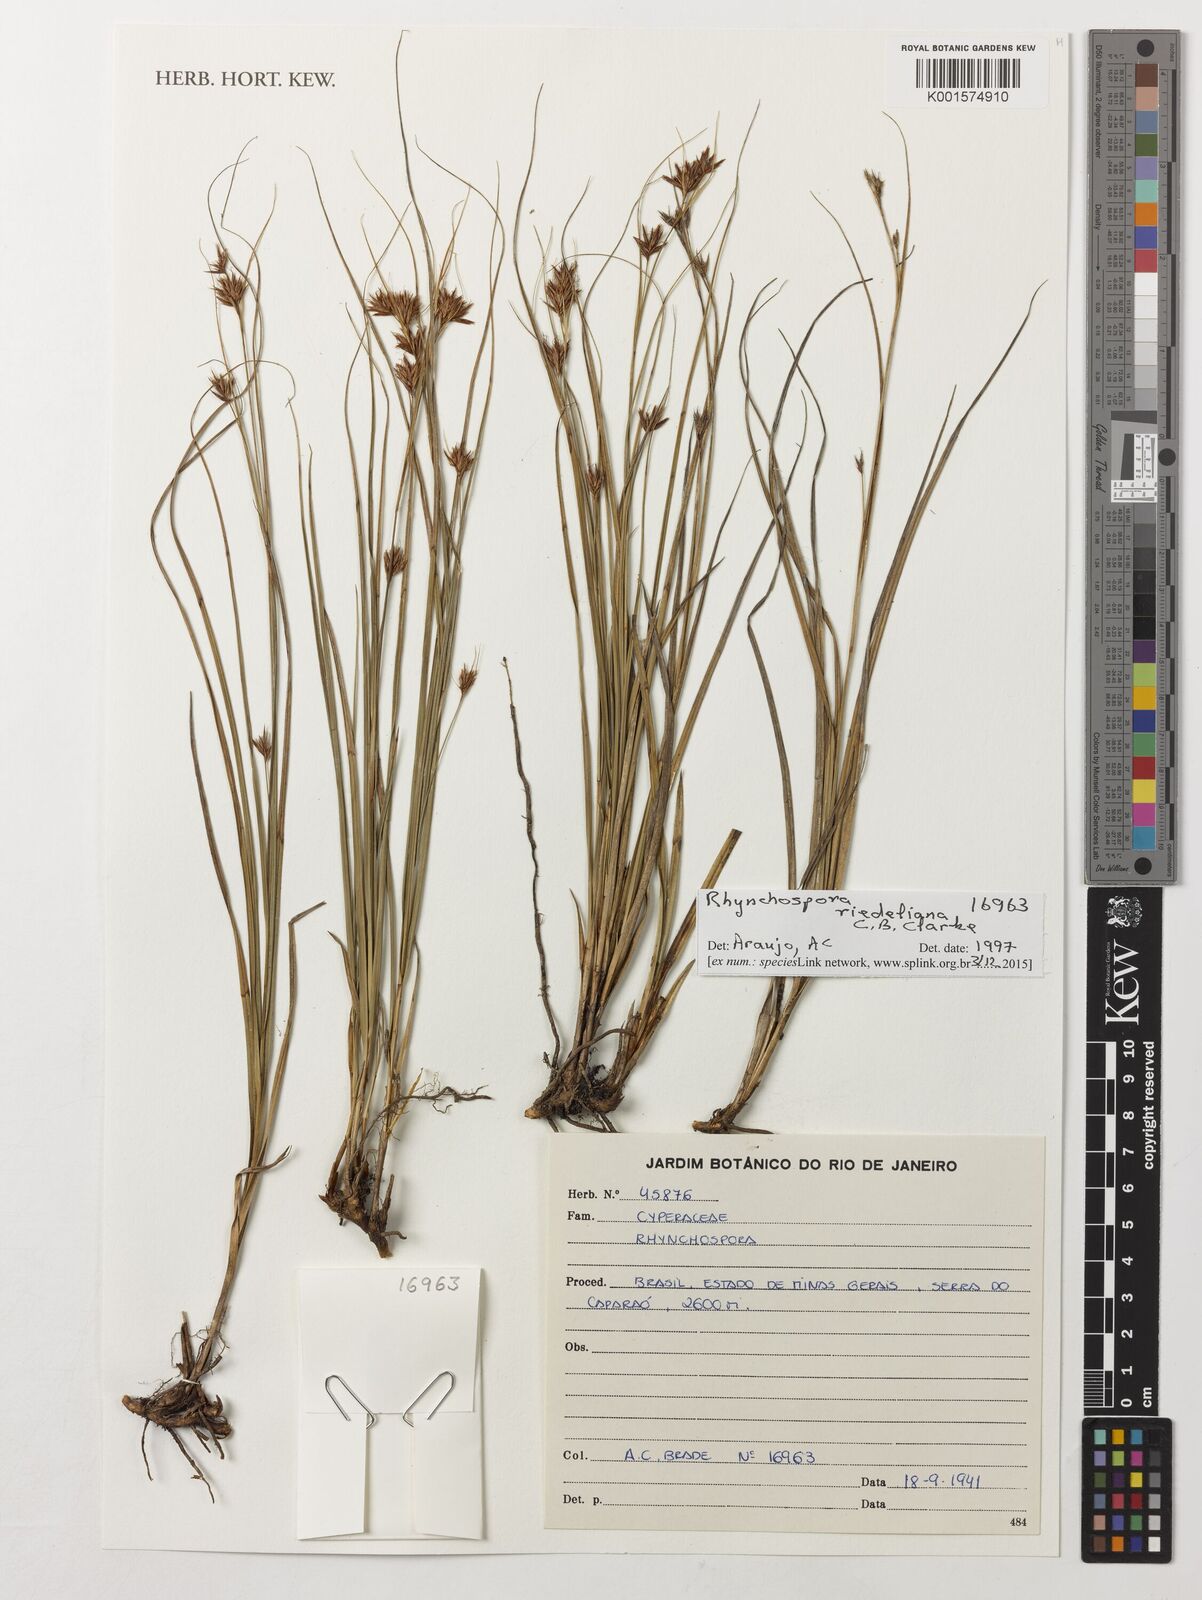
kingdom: Plantae
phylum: Tracheophyta
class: Liliopsida
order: Poales
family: Cyperaceae
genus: Rhynchospora
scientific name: Rhynchospora riedeliana
